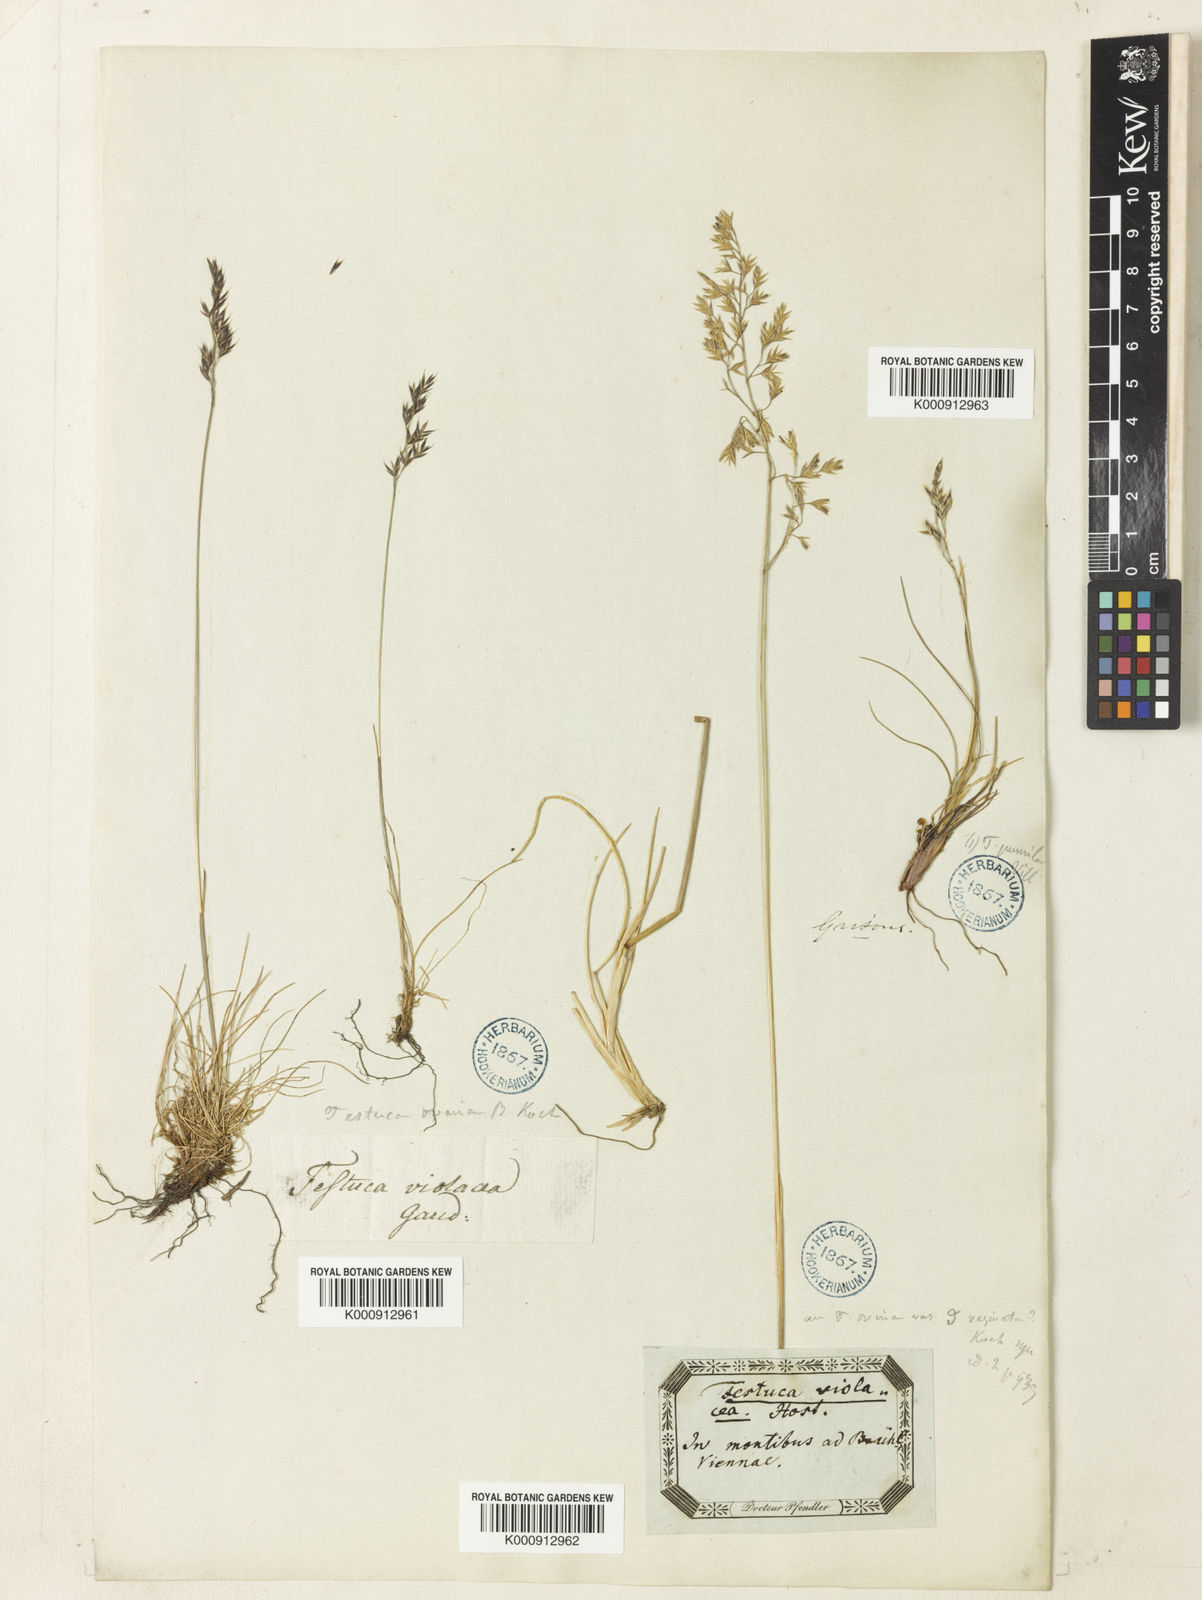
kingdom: Plantae
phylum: Tracheophyta
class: Liliopsida
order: Poales
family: Poaceae
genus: Festuca
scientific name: Festuca violacea
